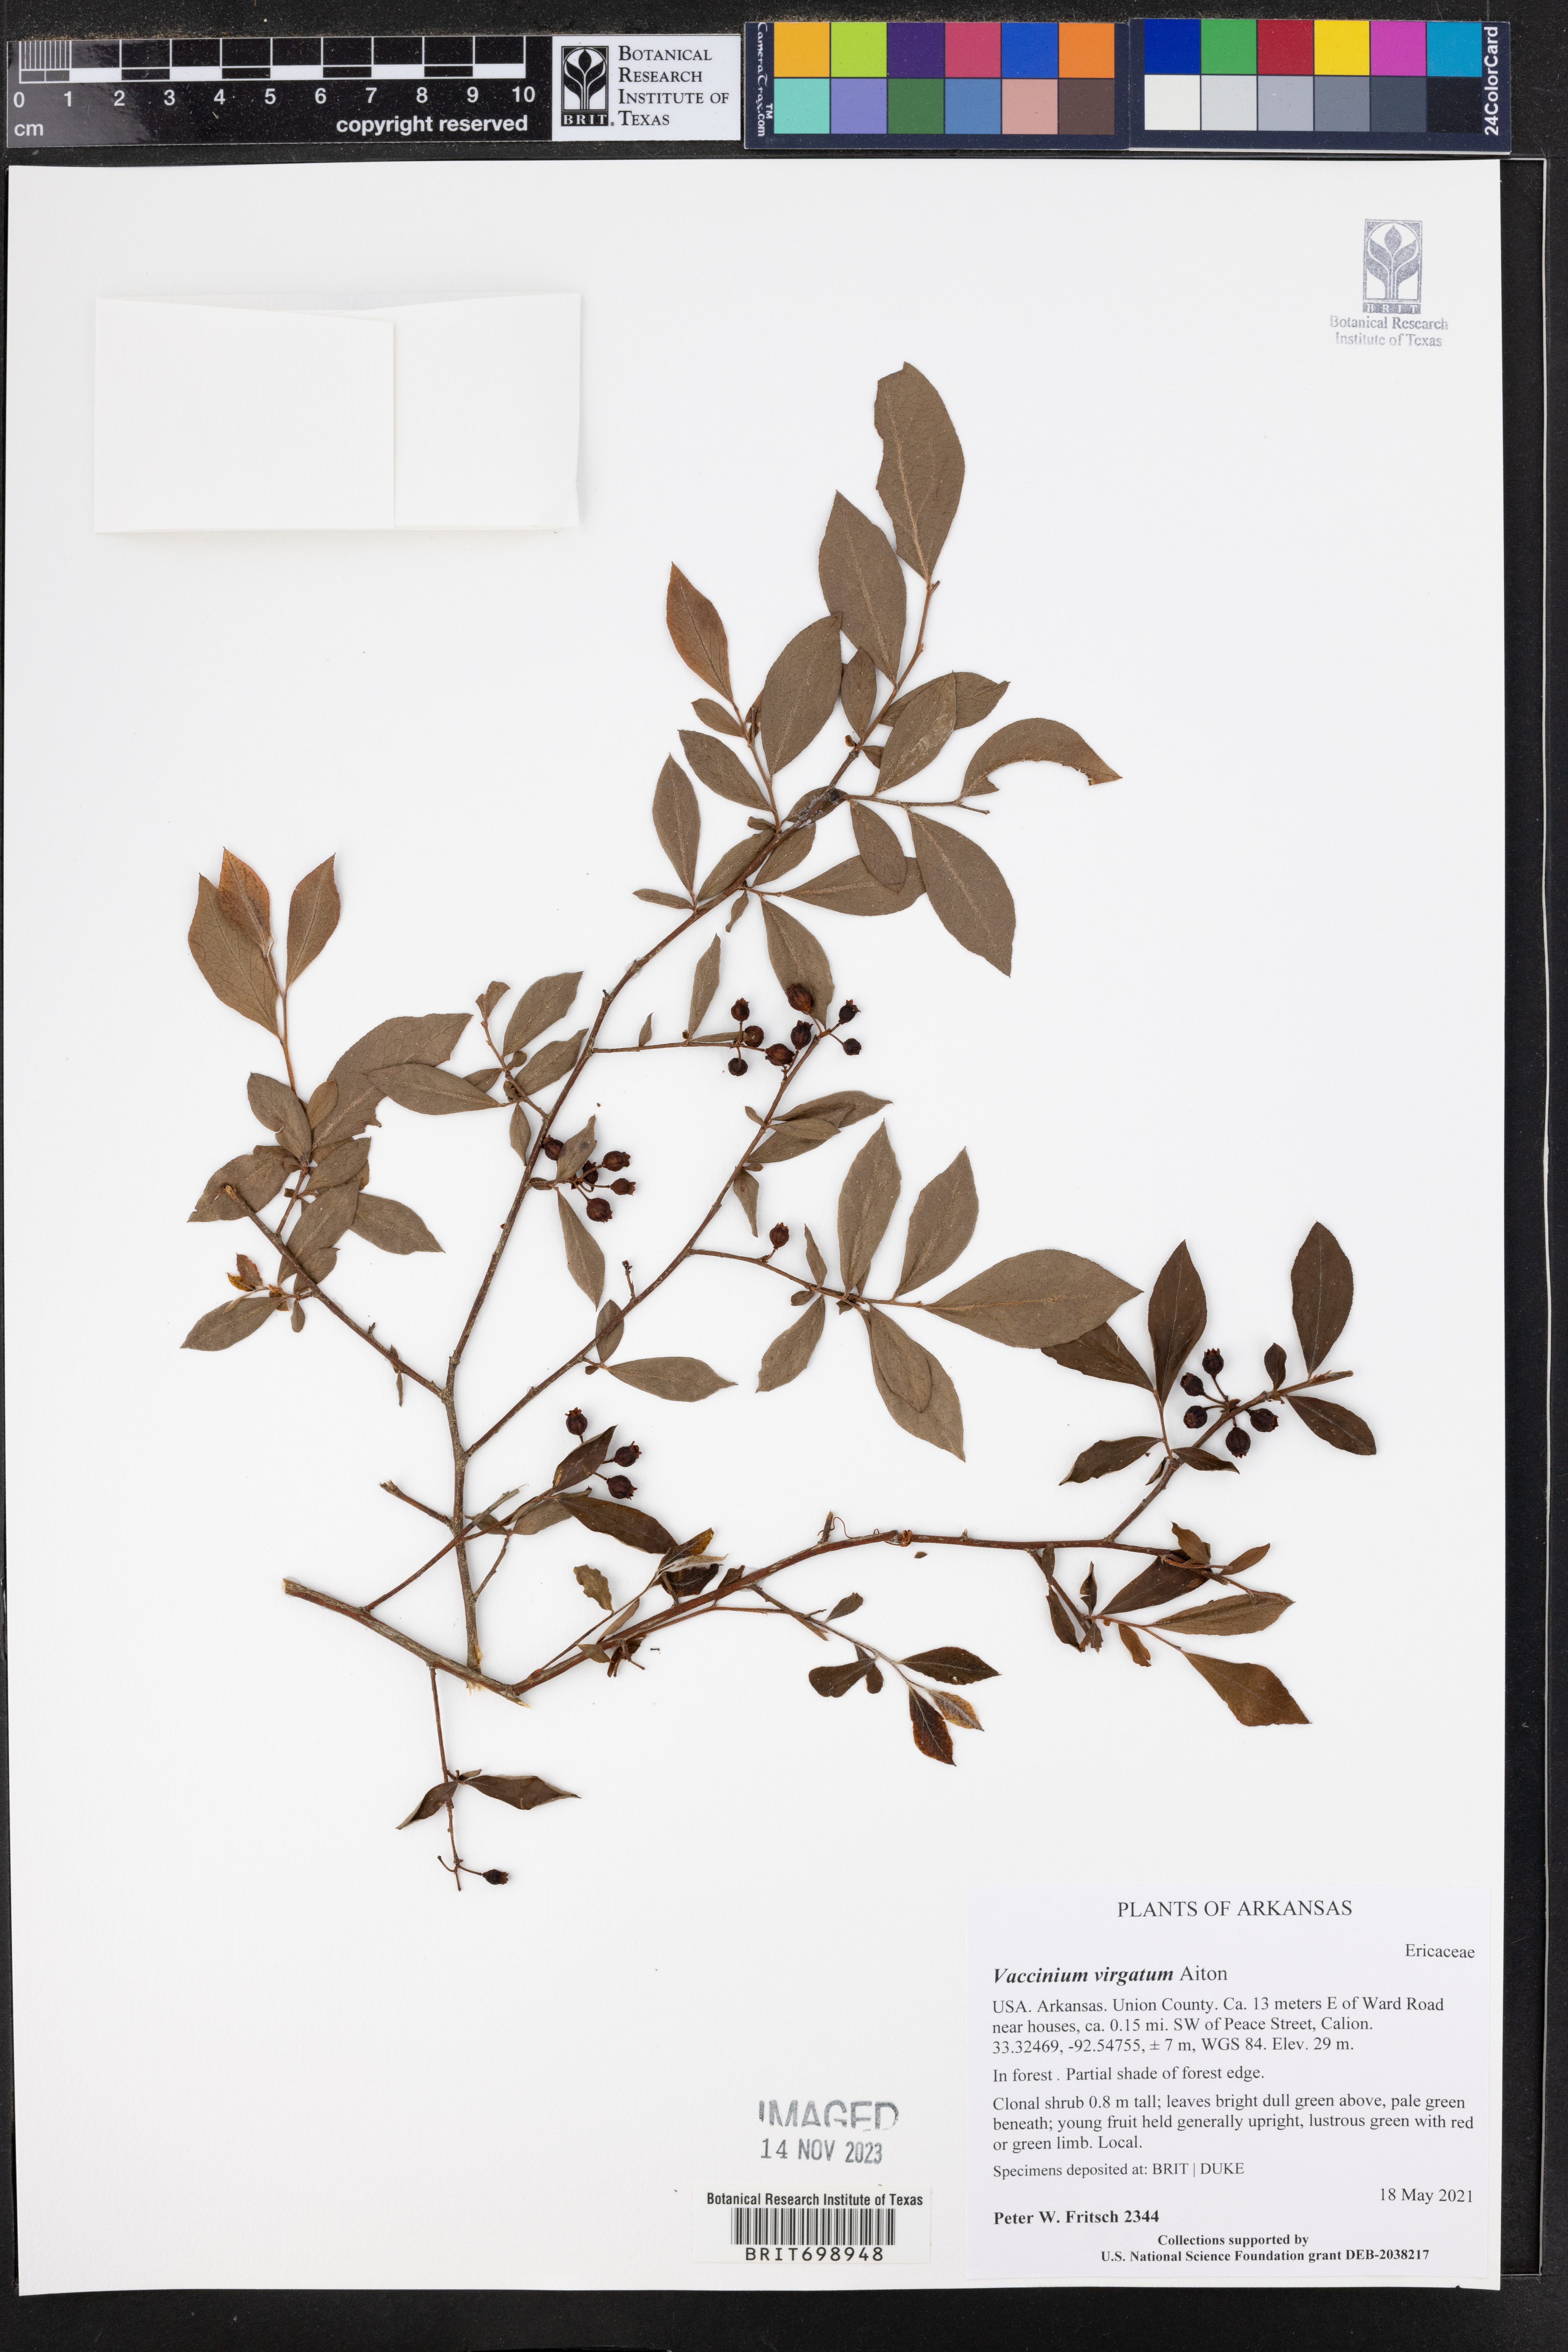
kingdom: Plantae
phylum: Tracheophyta
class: Magnoliopsida
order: Ericales
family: Ericaceae
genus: Vaccinium
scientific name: Vaccinium corymbosum
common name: Blueberry
